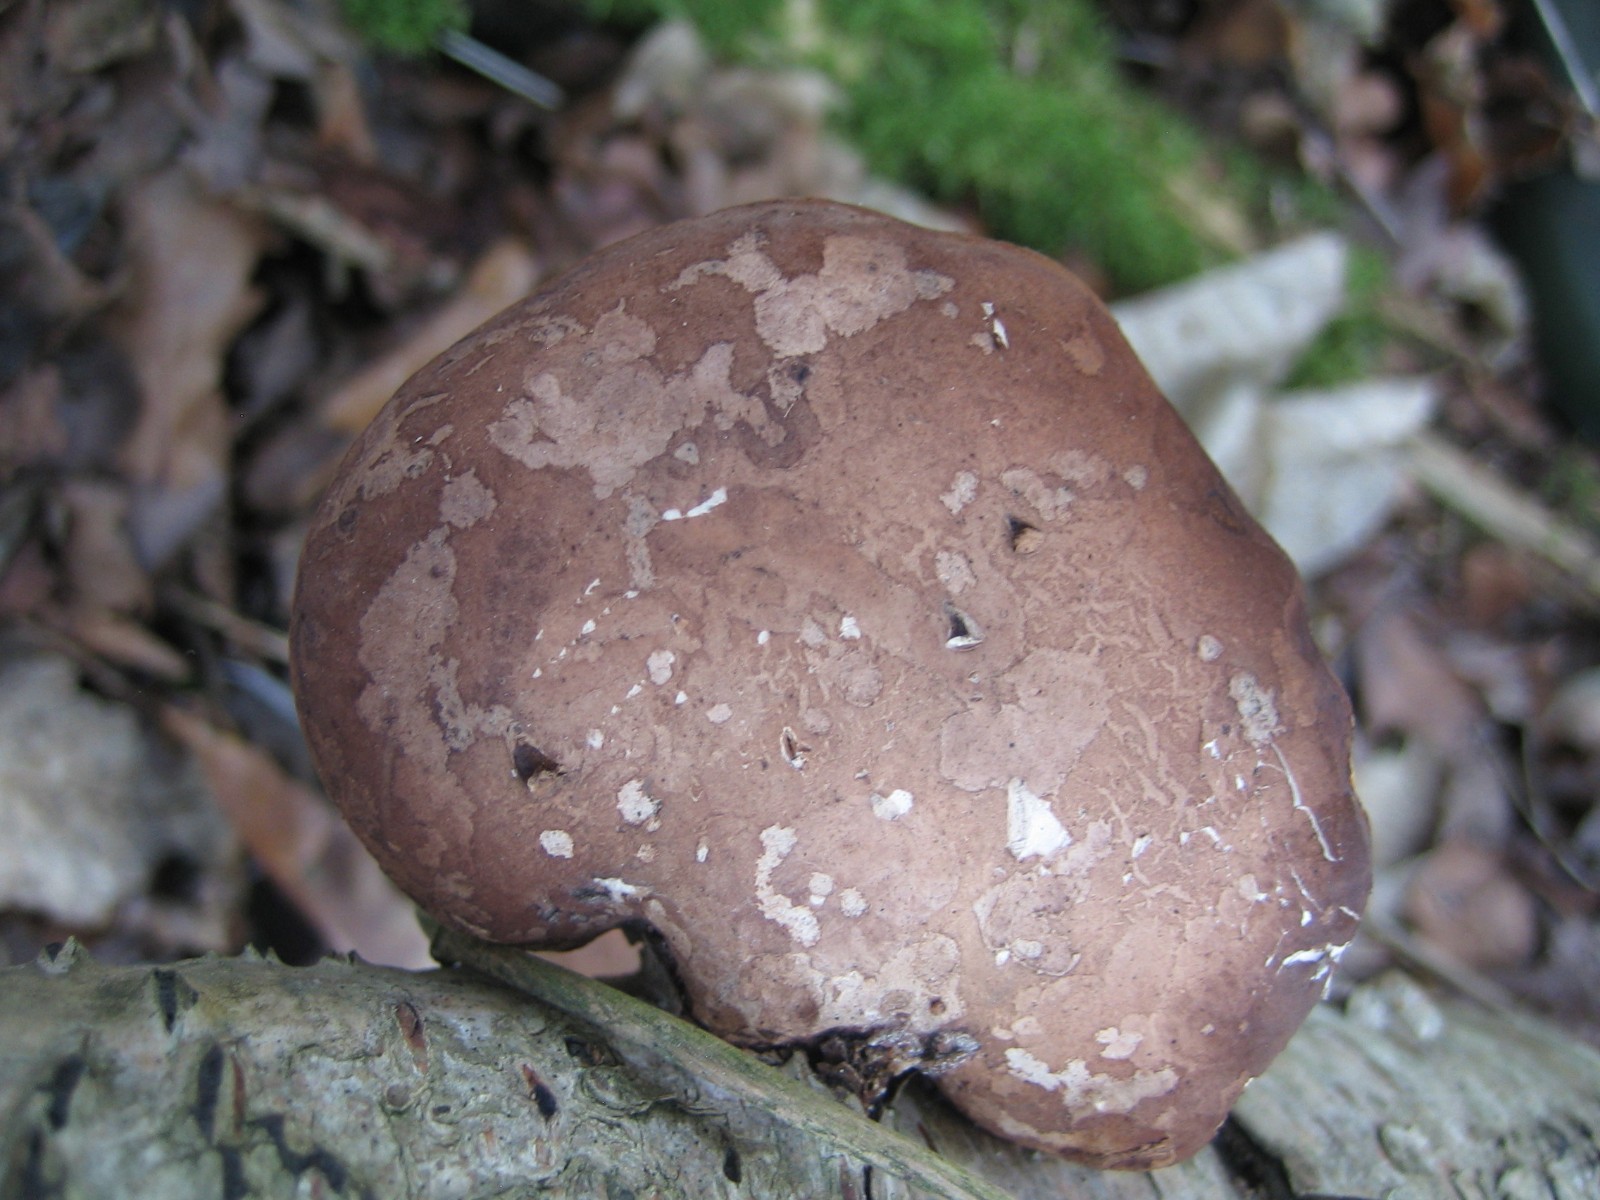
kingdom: Fungi
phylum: Basidiomycota
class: Agaricomycetes
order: Polyporales
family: Fomitopsidaceae
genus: Fomitopsis
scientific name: Fomitopsis
